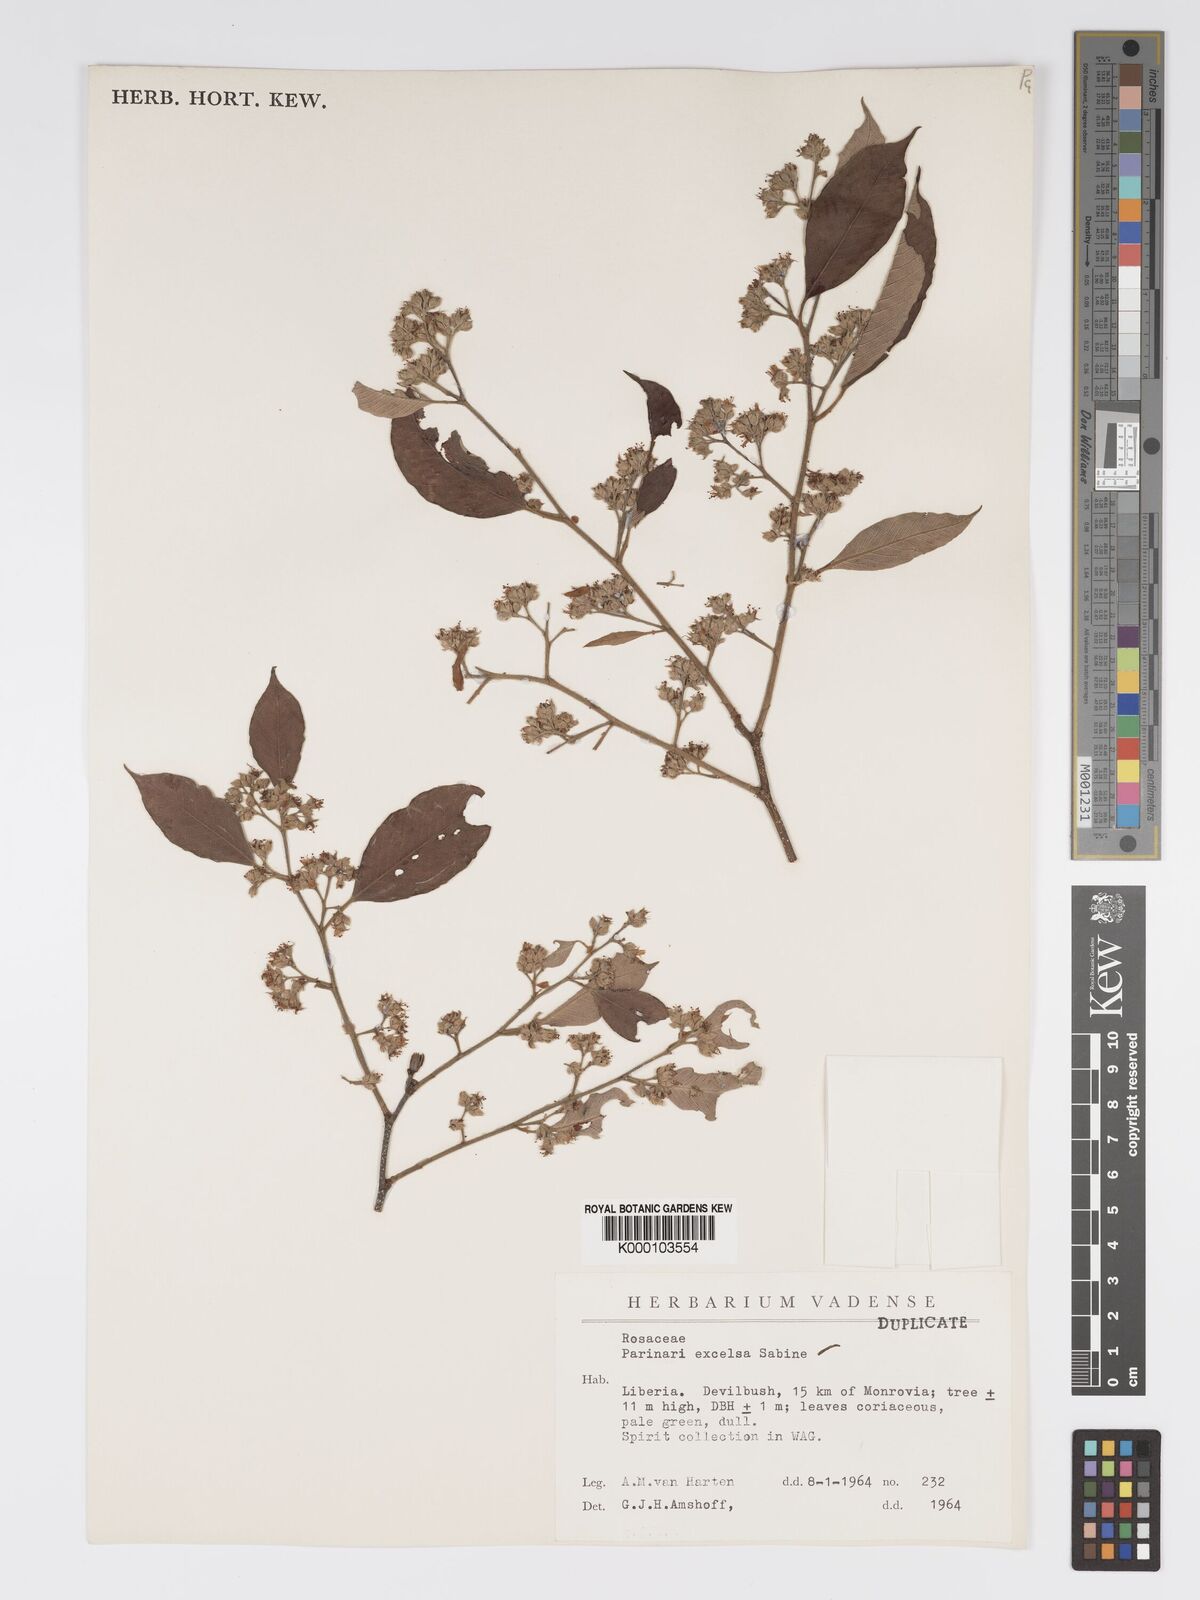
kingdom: Plantae
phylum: Tracheophyta
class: Magnoliopsida
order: Malpighiales
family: Chrysobalanaceae
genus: Parinari
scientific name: Parinari excelsa
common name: Guinea-plum
